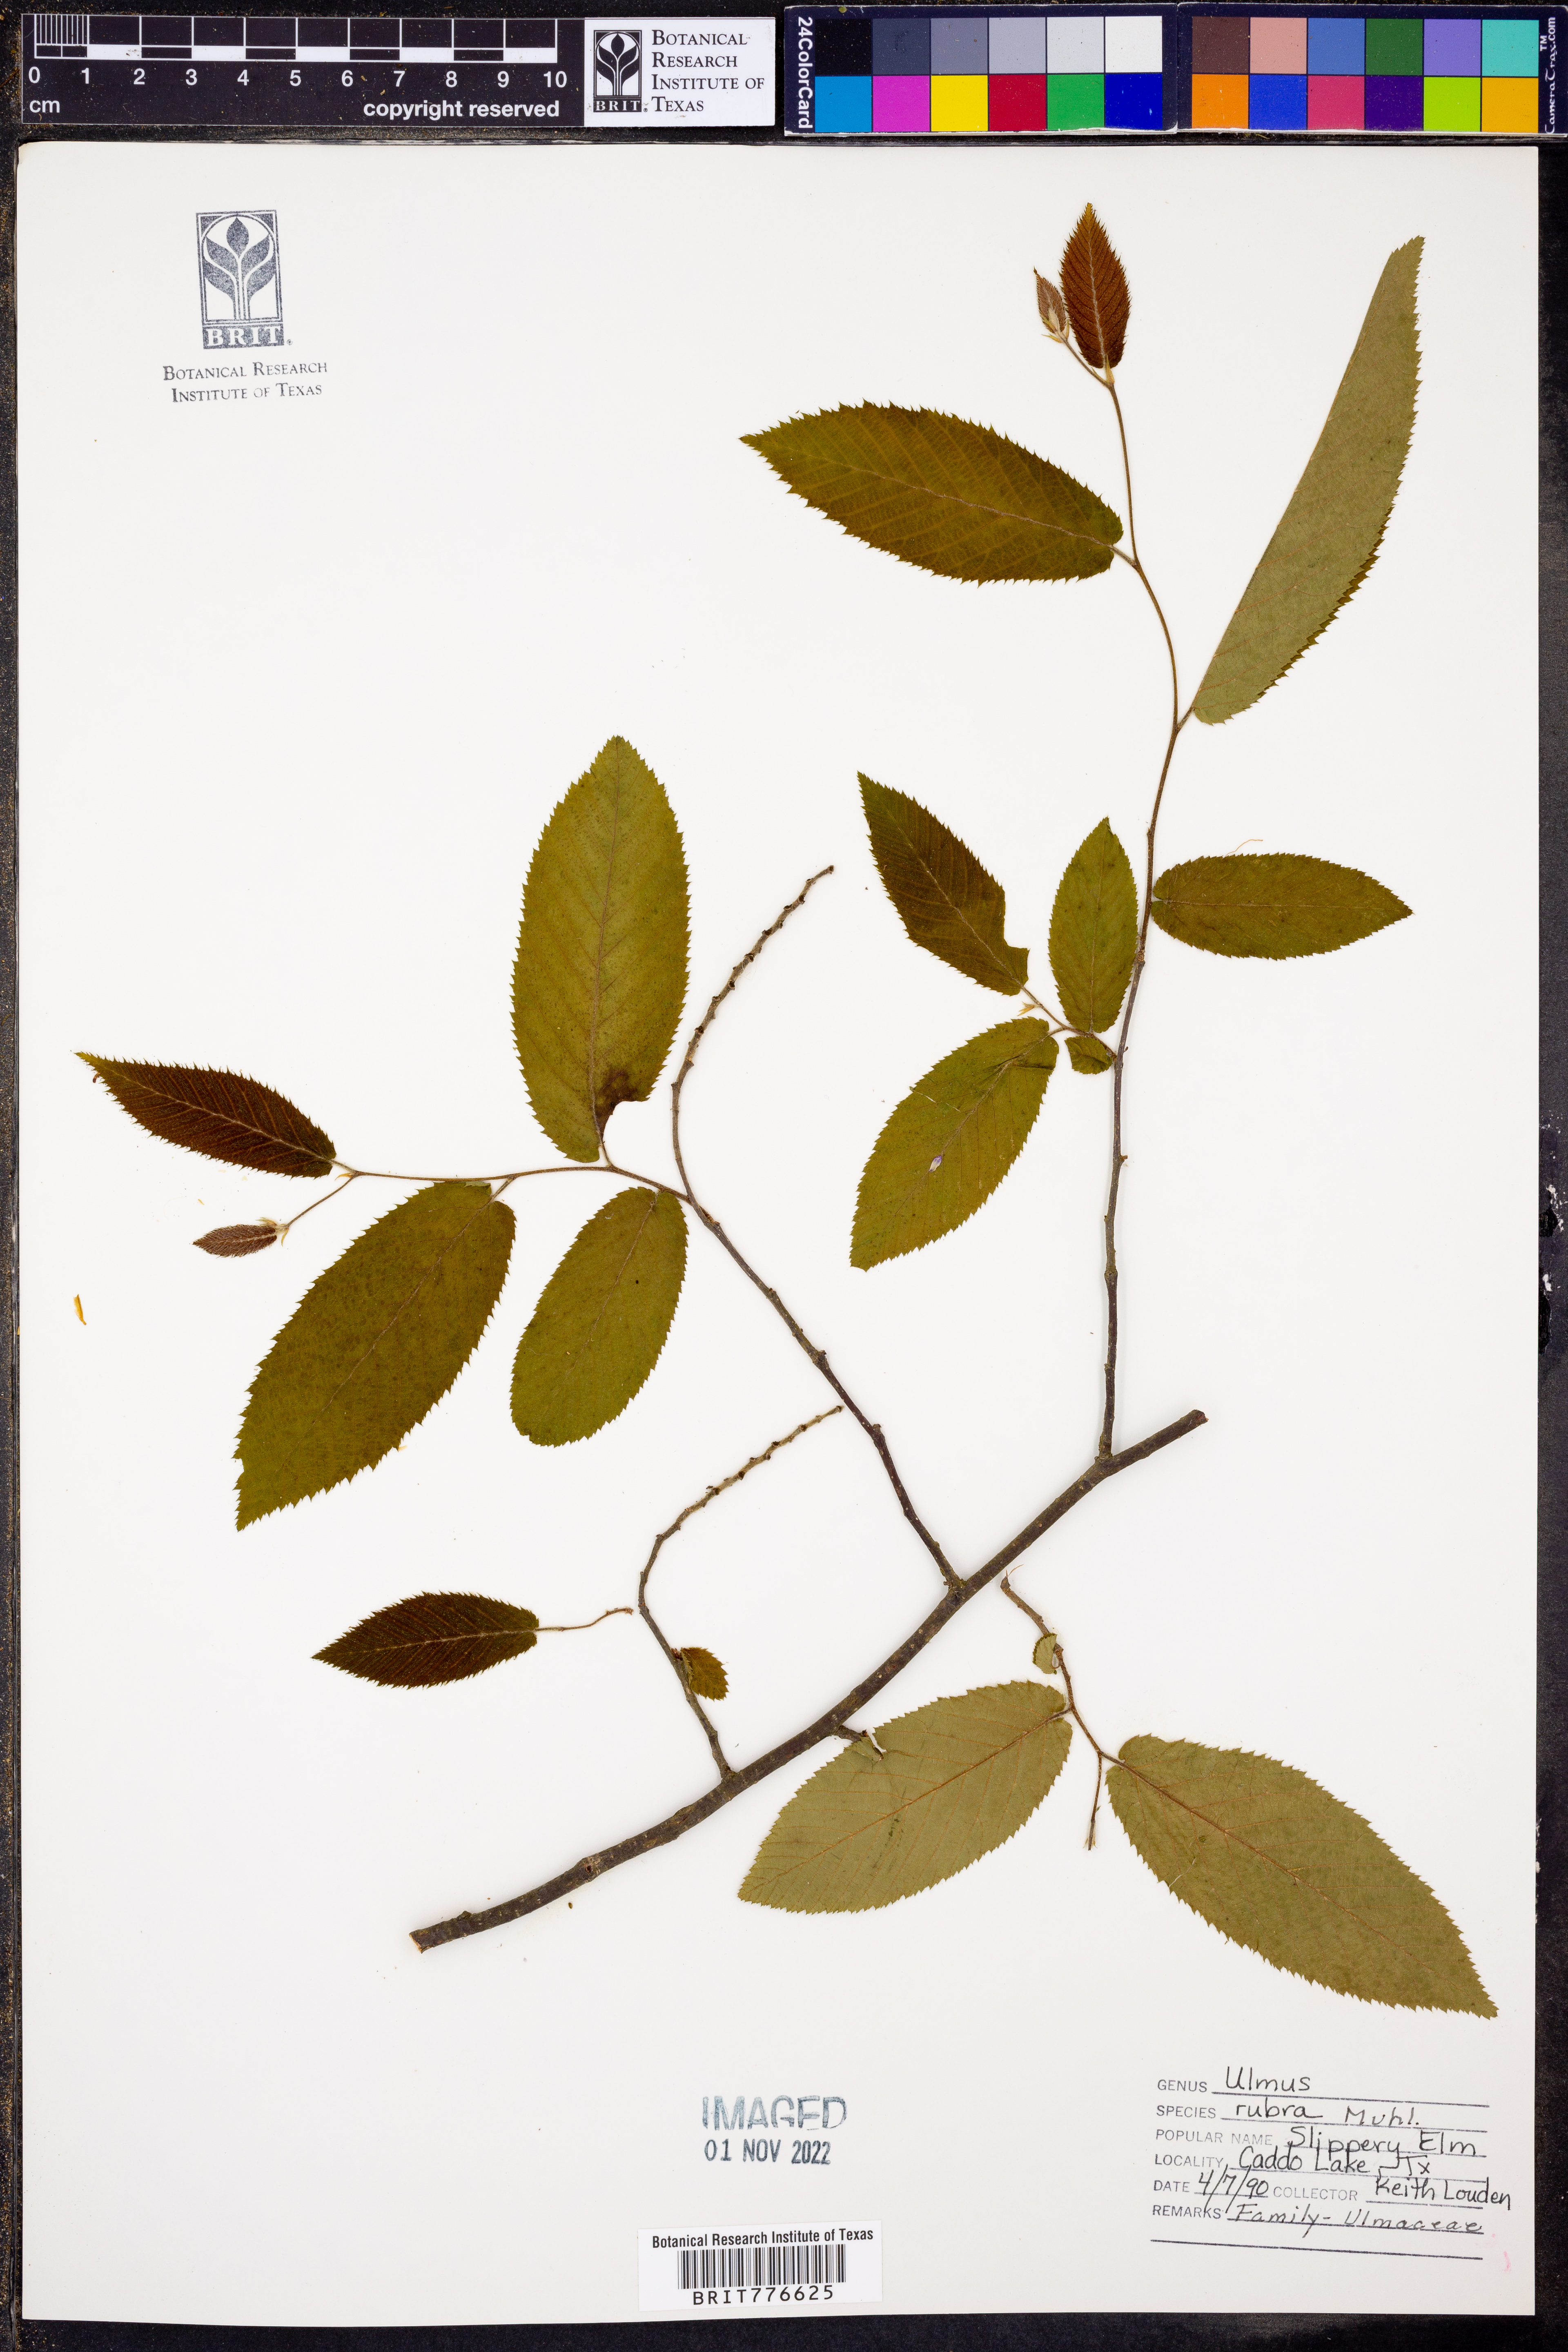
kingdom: Plantae
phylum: Tracheophyta
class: Magnoliopsida
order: Rosales
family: Ulmaceae
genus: Ulmus
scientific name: Ulmus rubra
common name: Slippery elm
